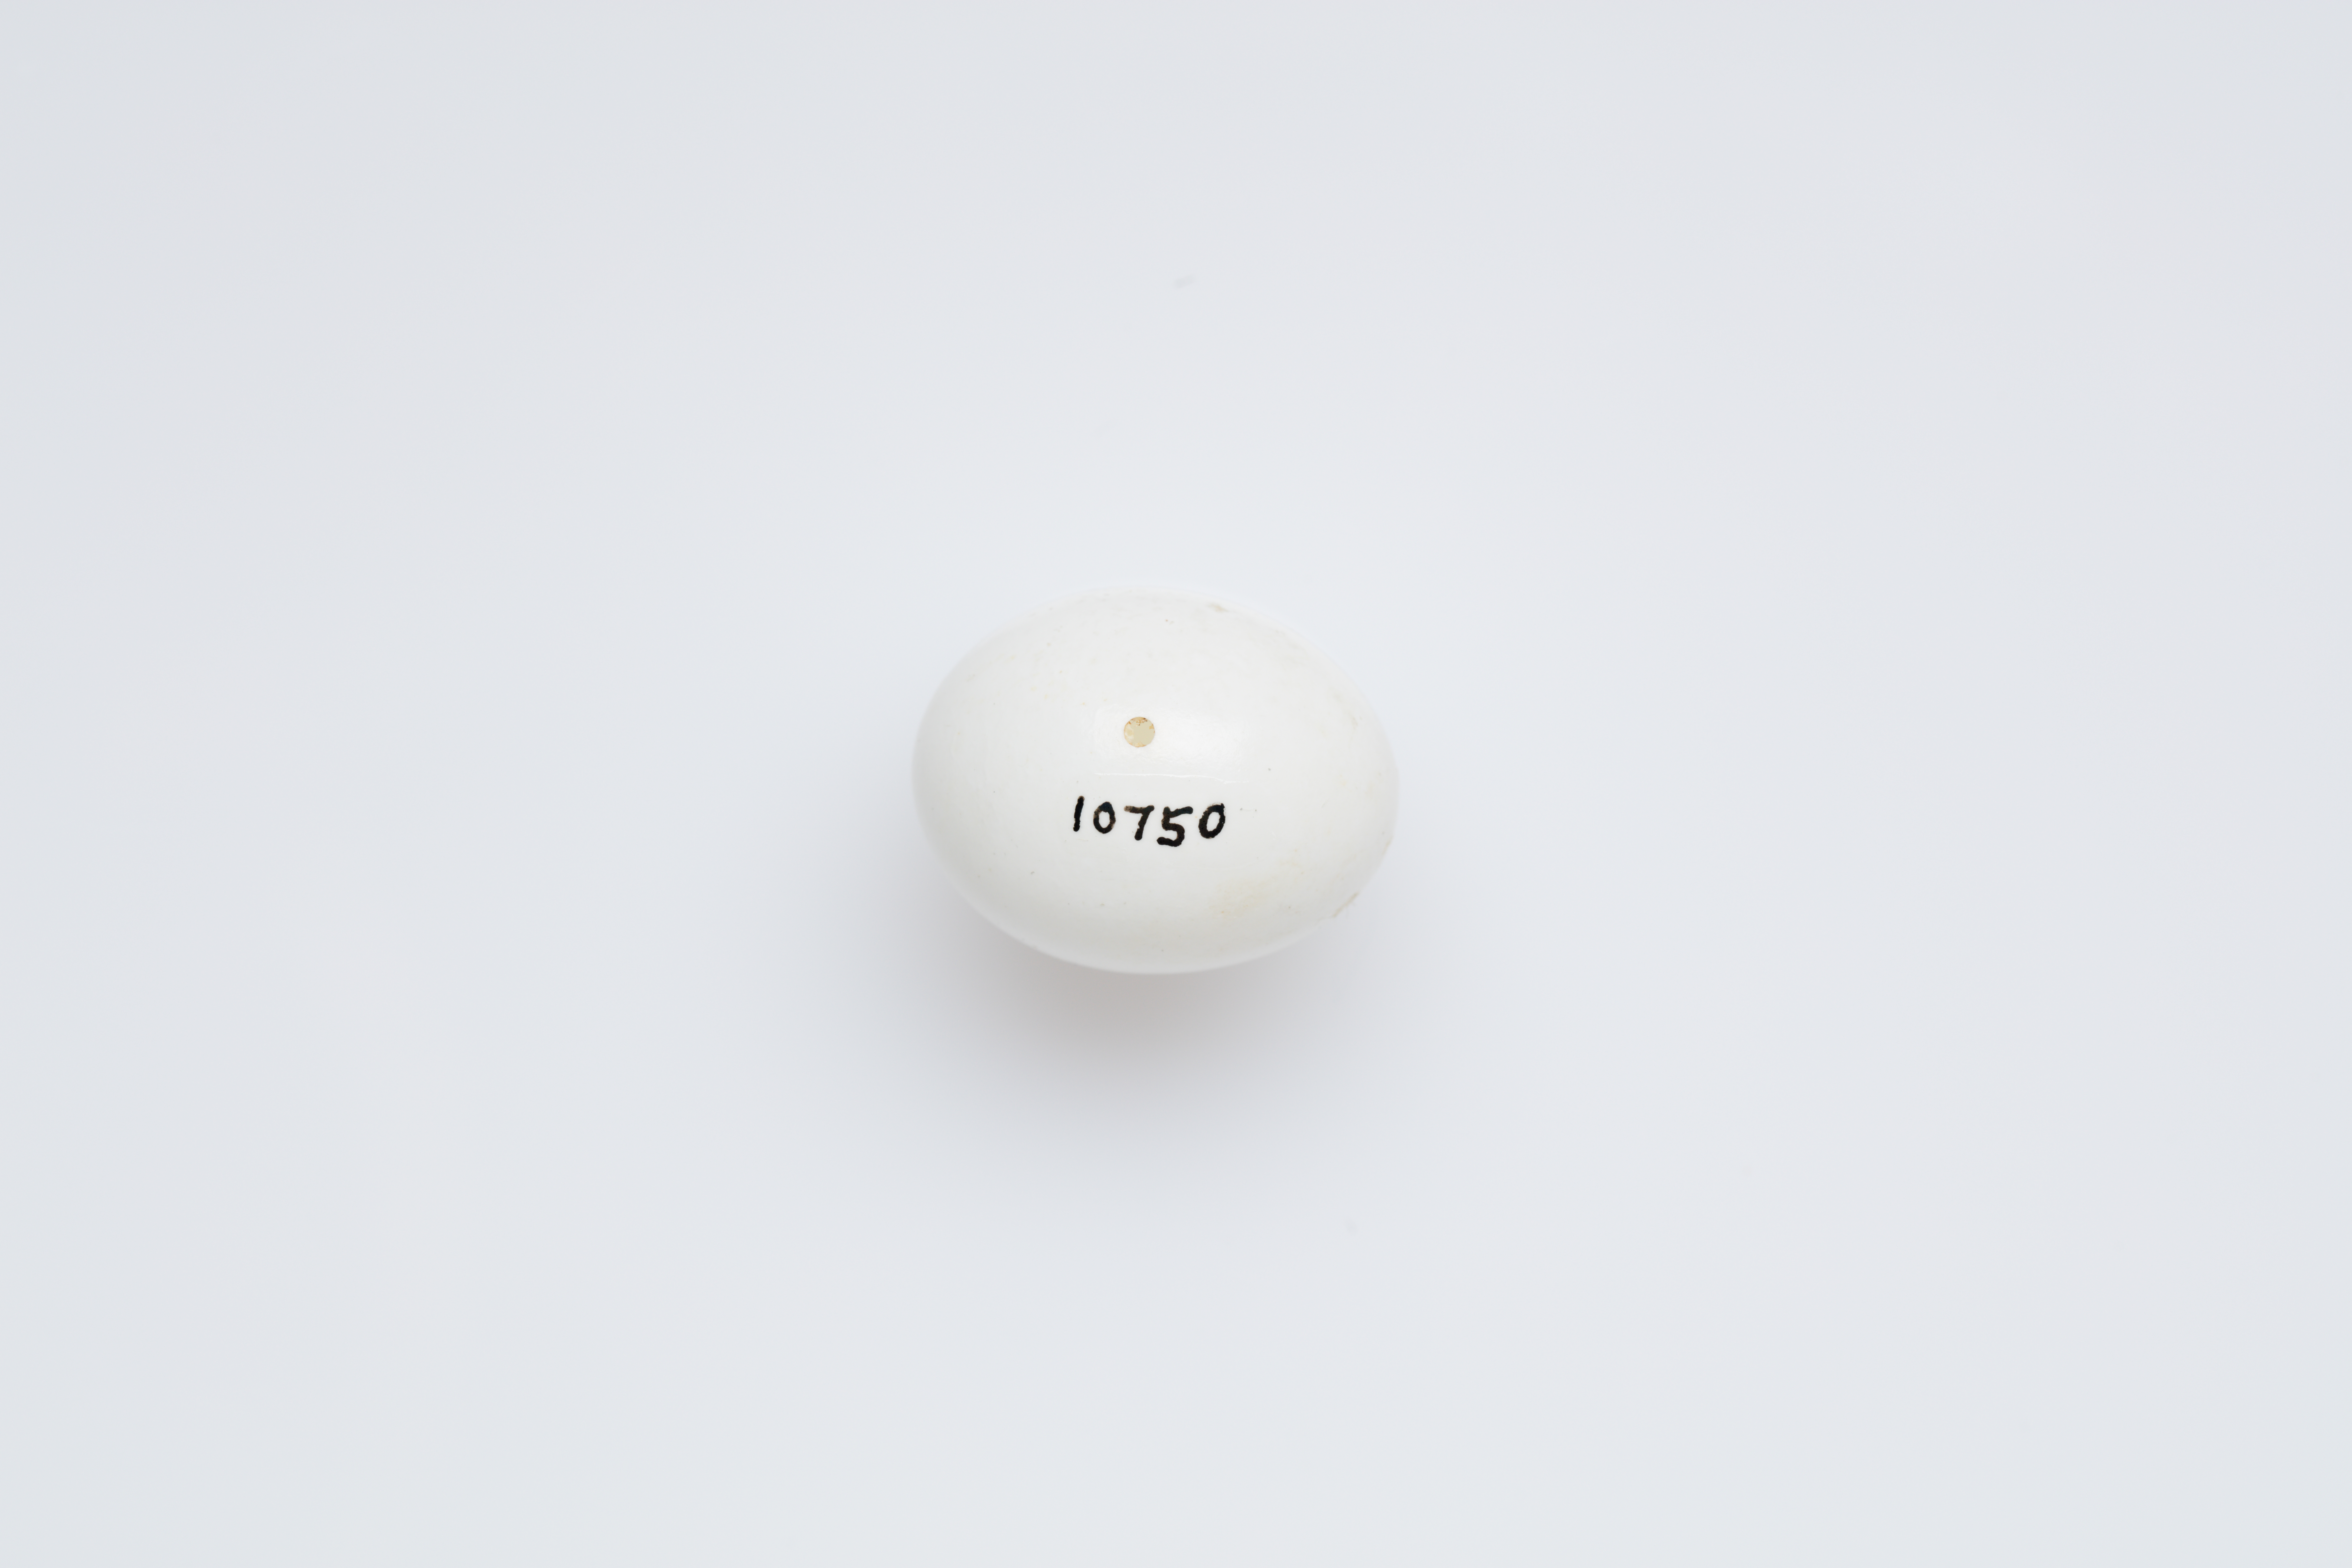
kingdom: Animalia
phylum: Chordata
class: Aves
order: Coraciiformes
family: Alcedinidae
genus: Alcedo
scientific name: Alcedo atthis
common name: Common kingfisher
